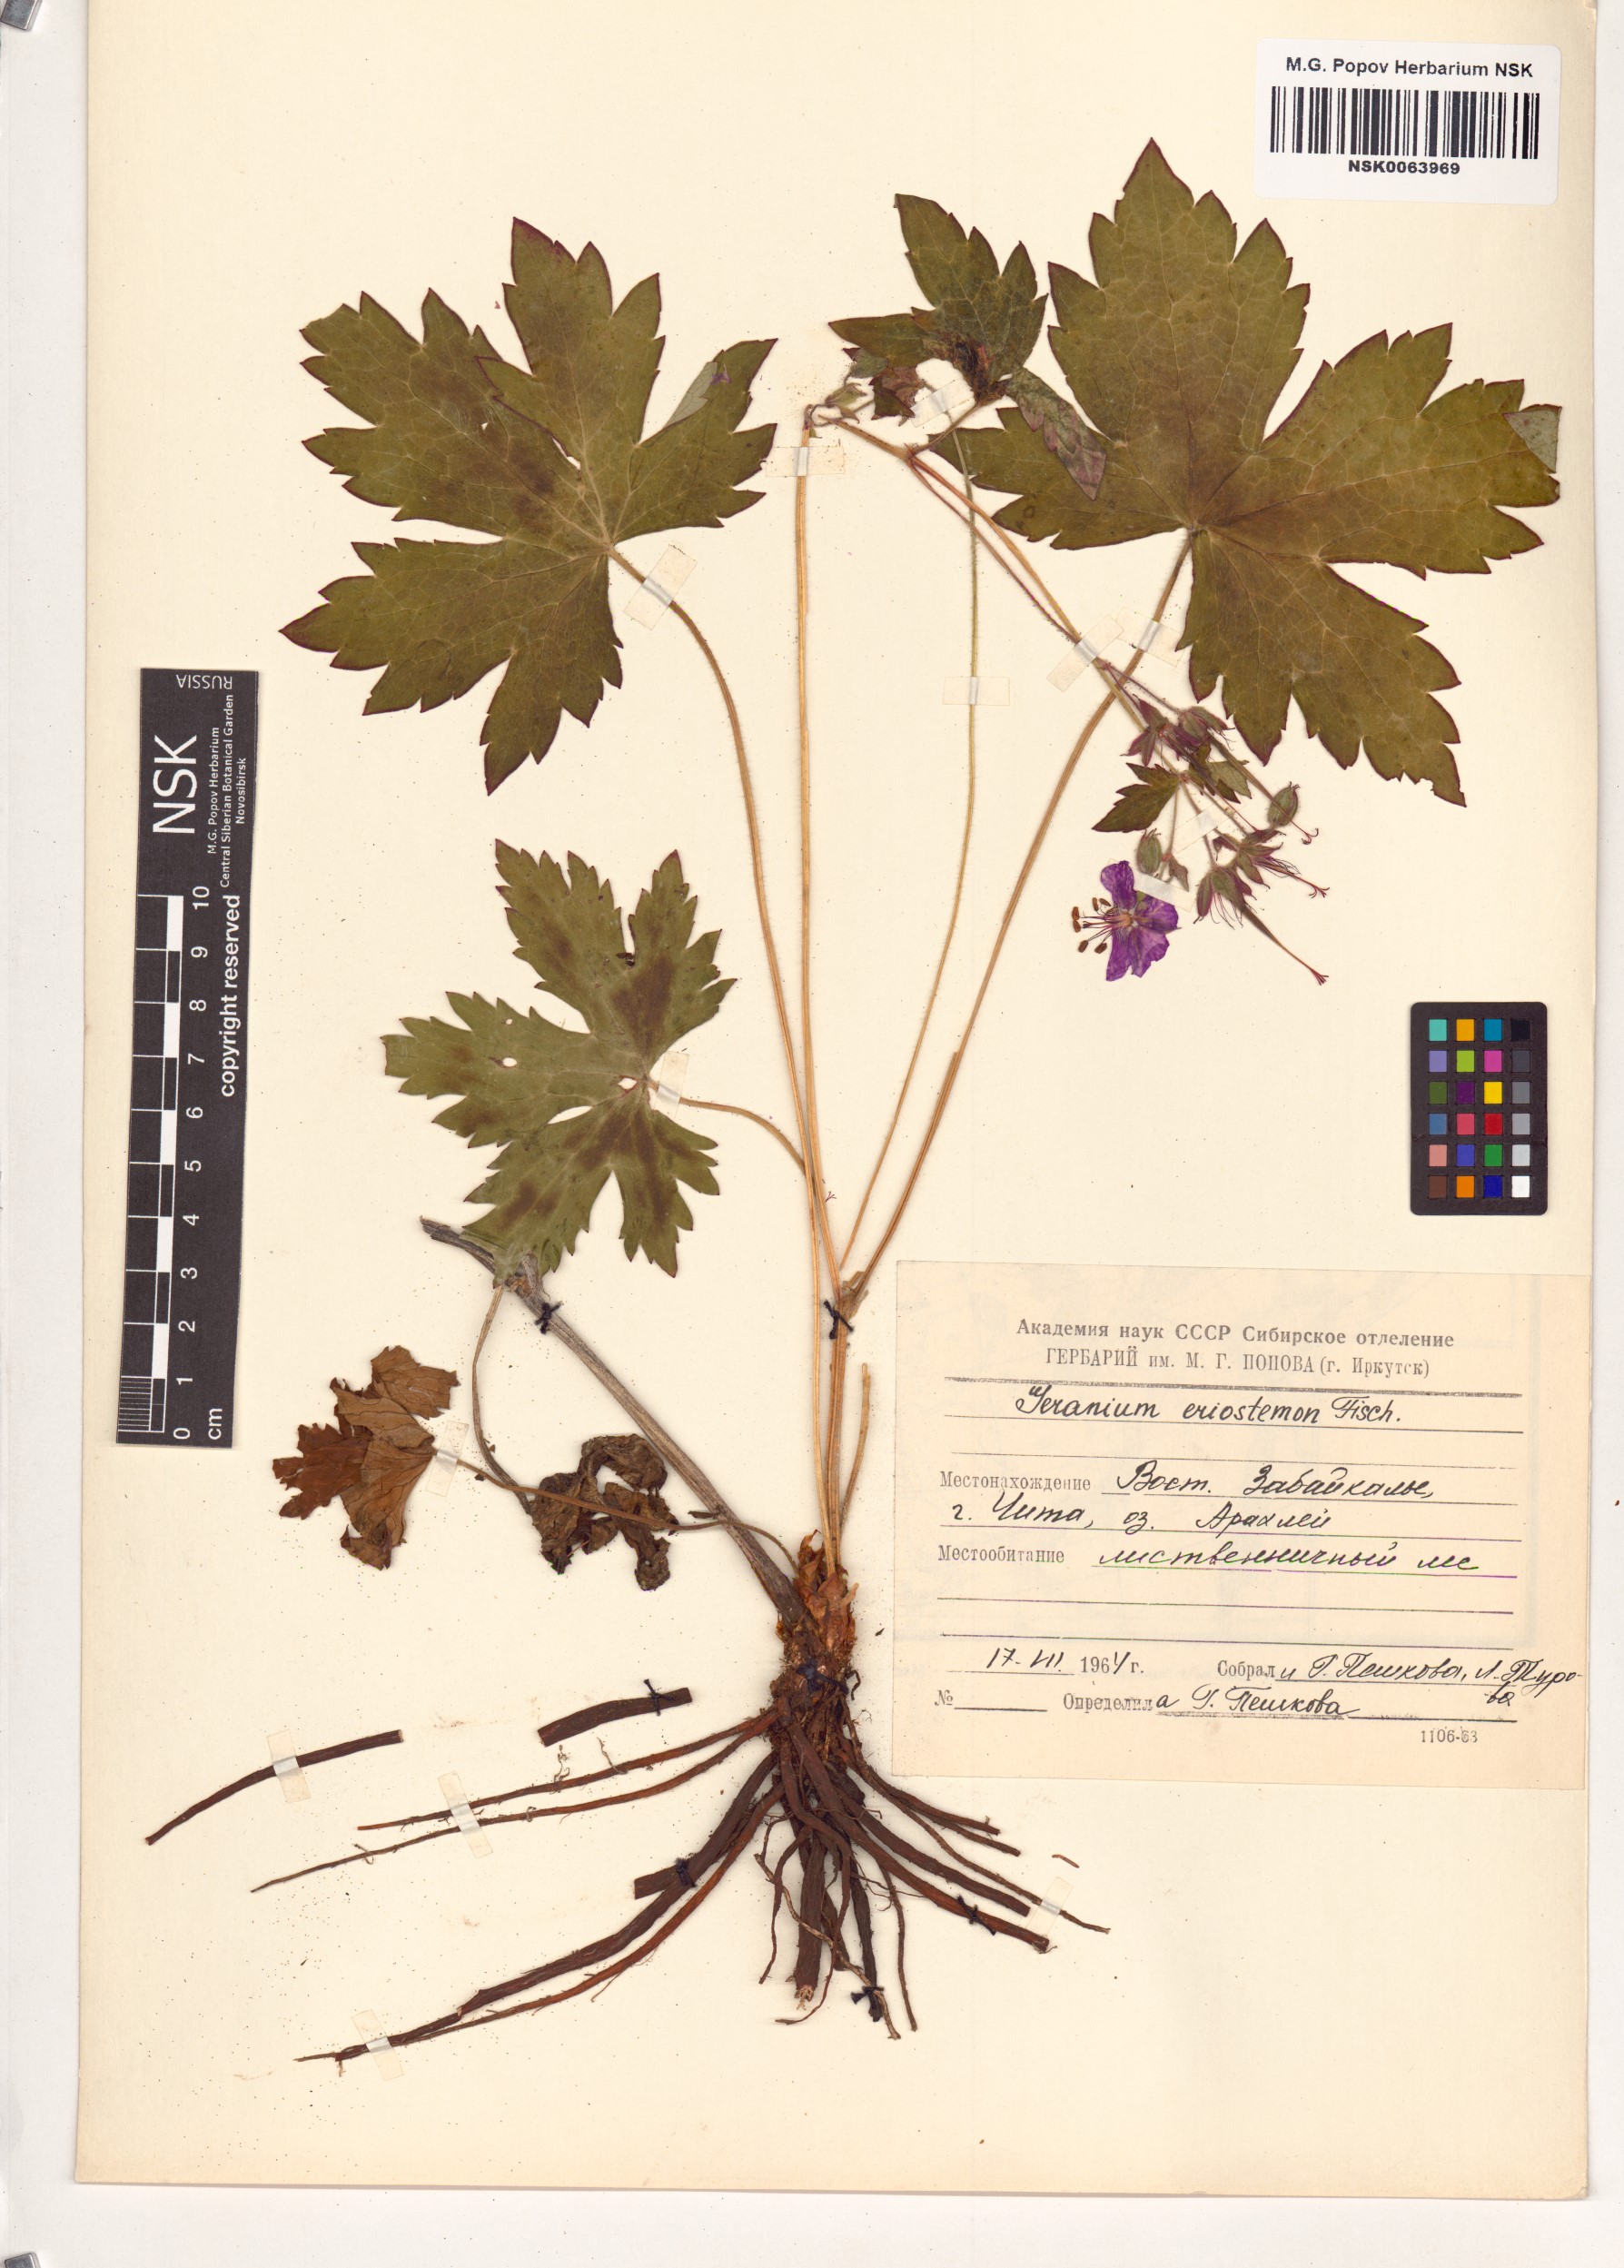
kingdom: Plantae
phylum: Tracheophyta
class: Magnoliopsida
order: Geraniales
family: Geraniaceae
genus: Geranium
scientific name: Geranium platyanthum
